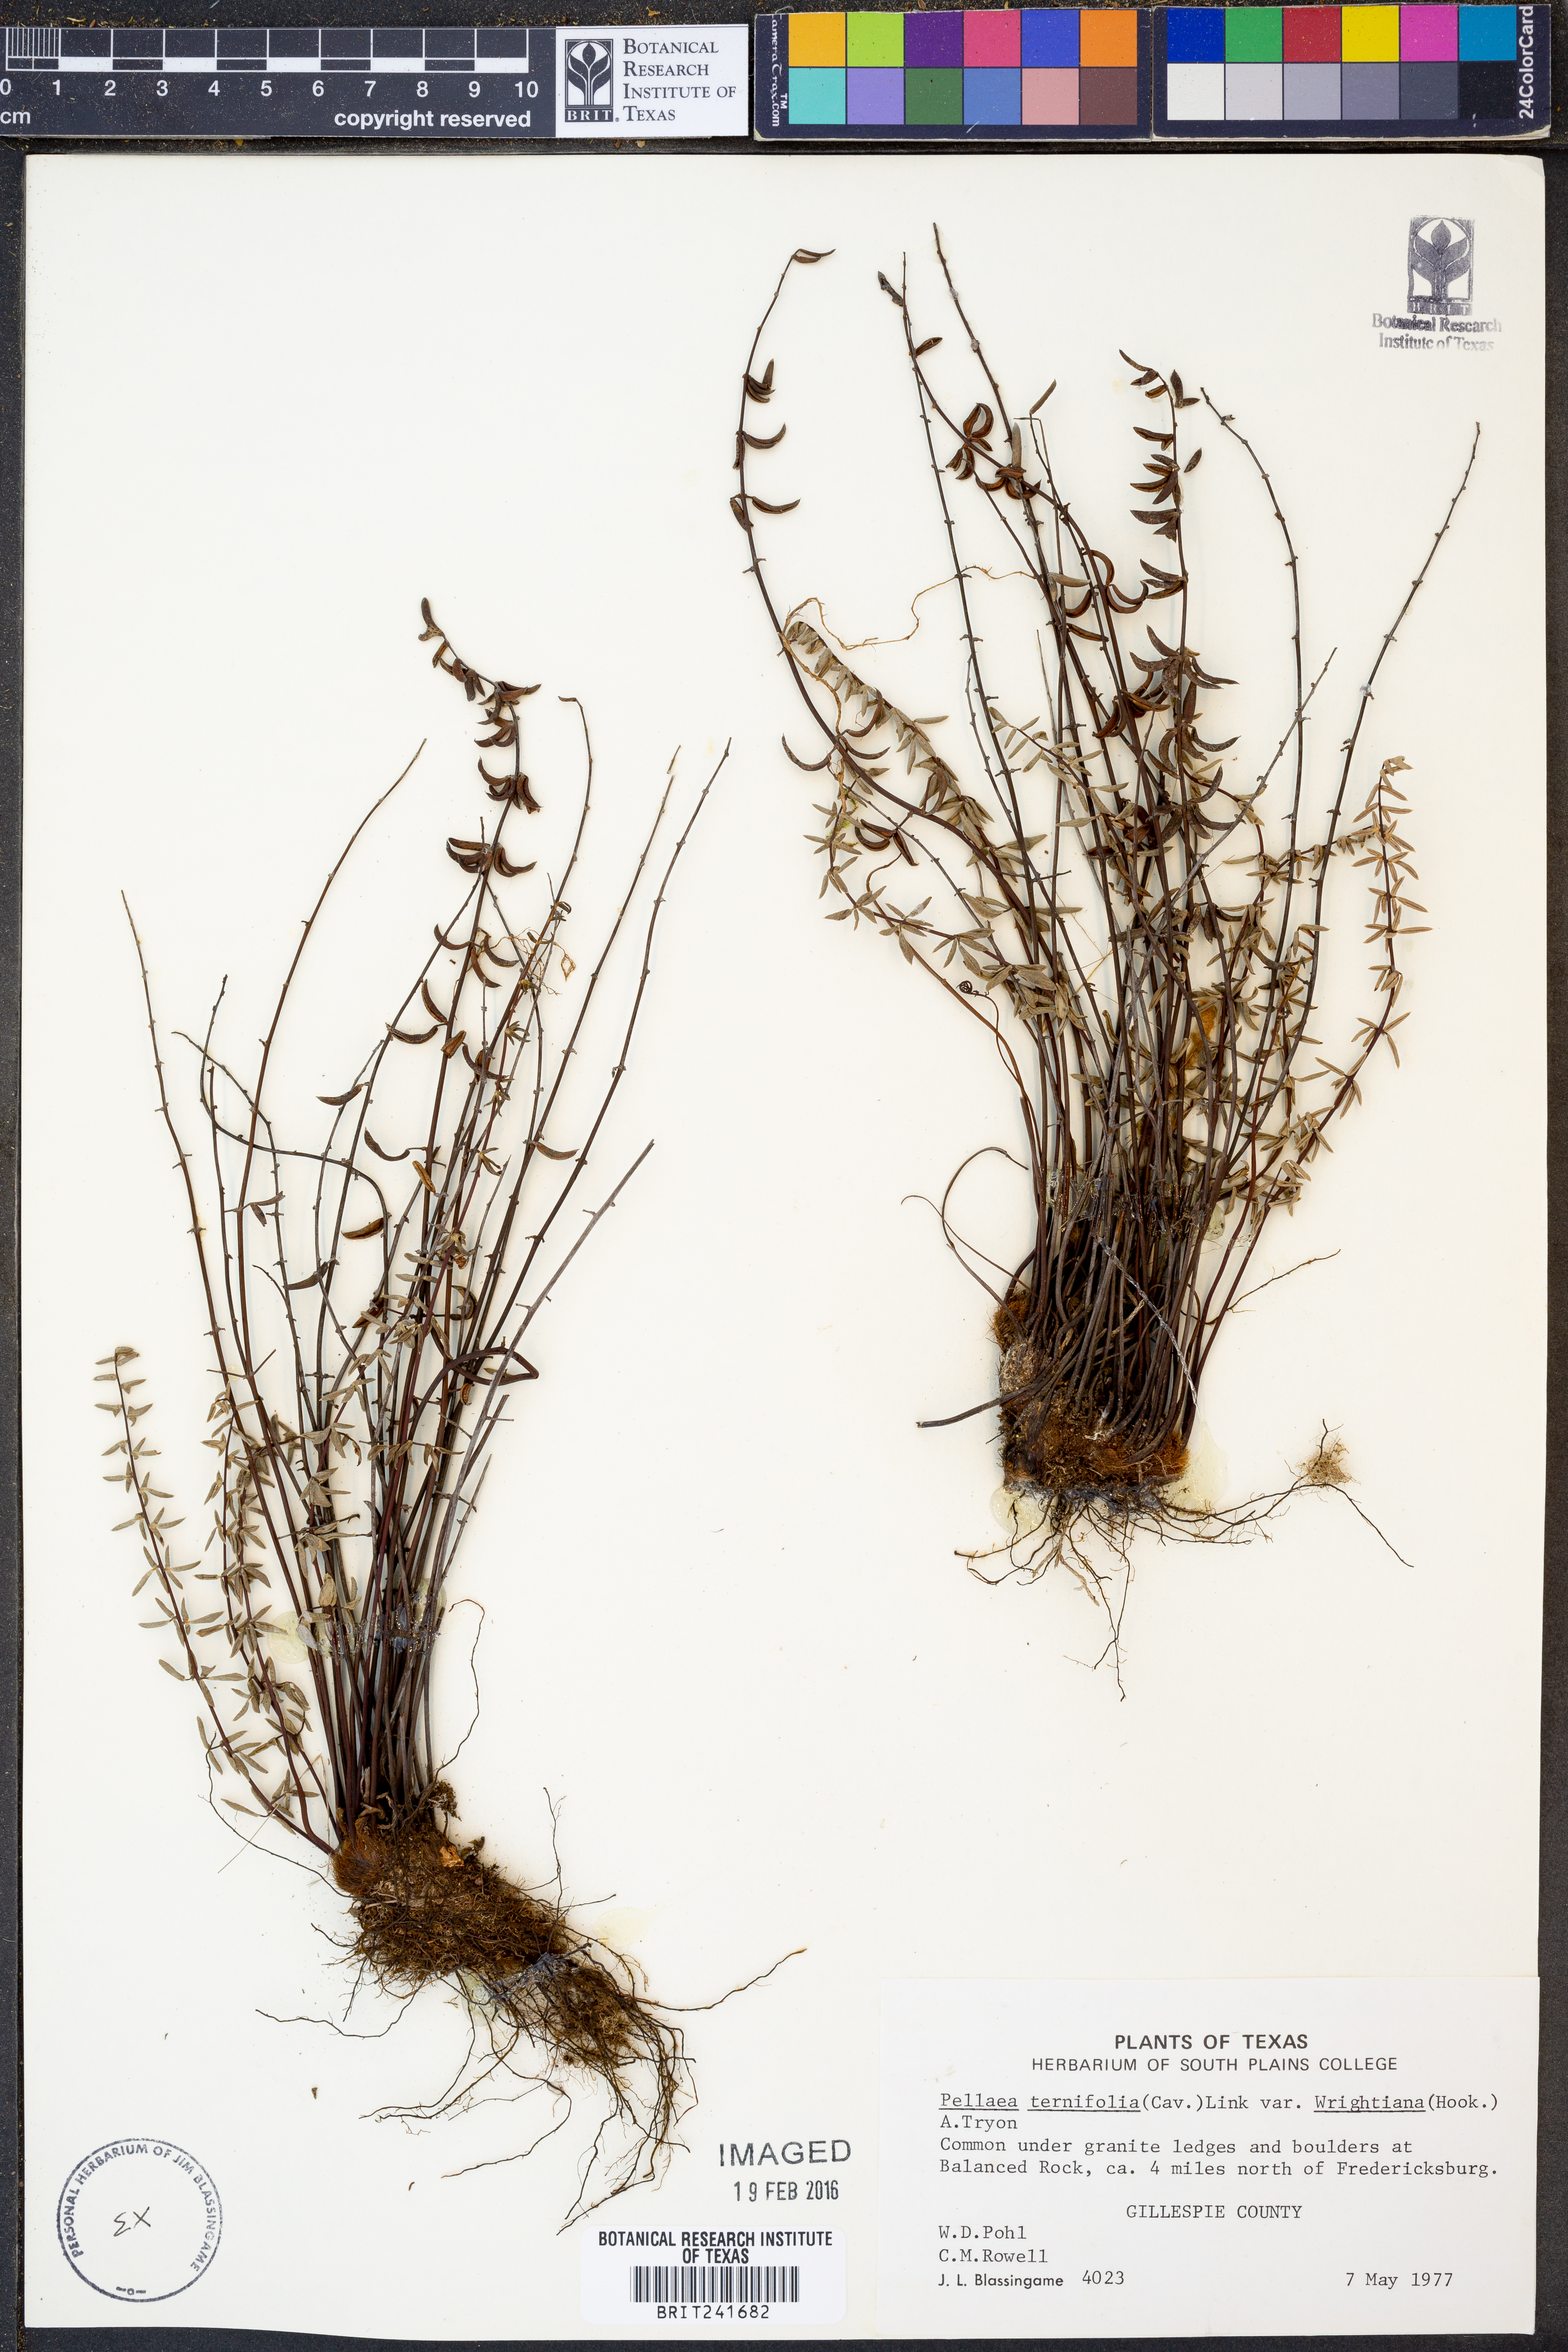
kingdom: Plantae
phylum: Tracheophyta
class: Polypodiopsida
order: Polypodiales
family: Pteridaceae
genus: Pellaea
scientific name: Pellaea wrightiana
